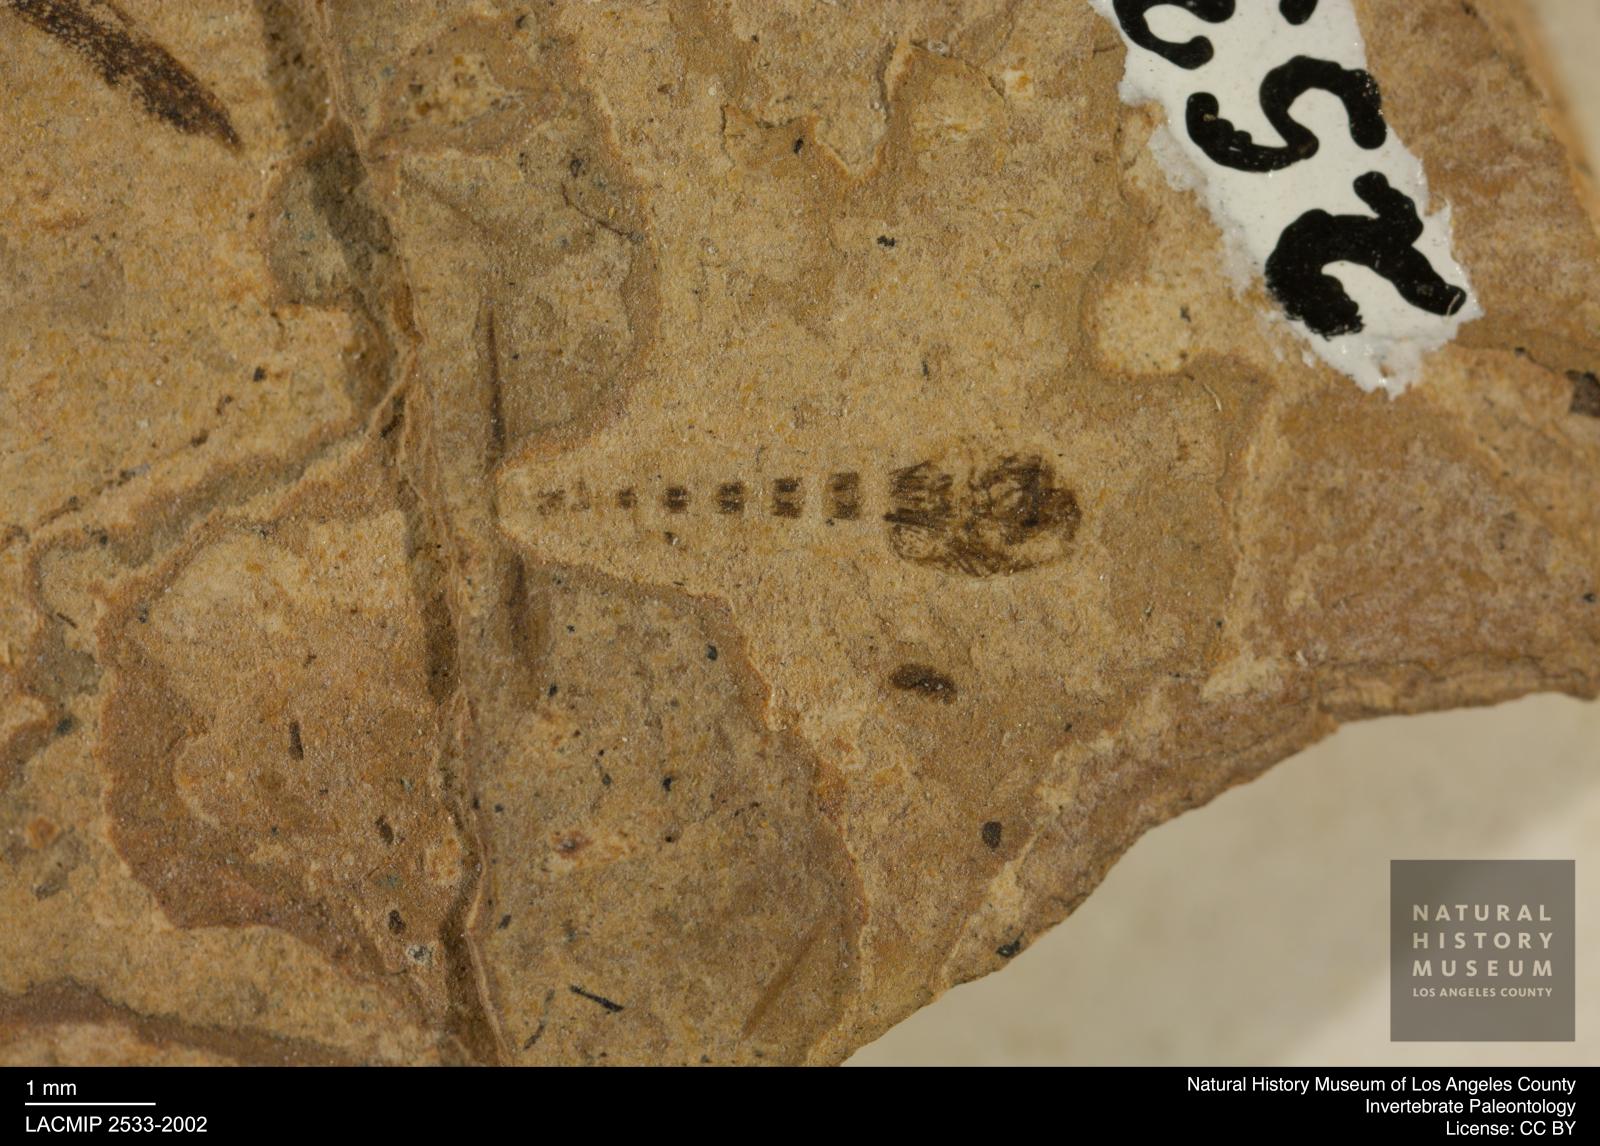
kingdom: Animalia
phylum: Arthropoda
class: Insecta
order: Diptera
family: Ceratopogonidae
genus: Ceratopogon
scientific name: Ceratopogon
